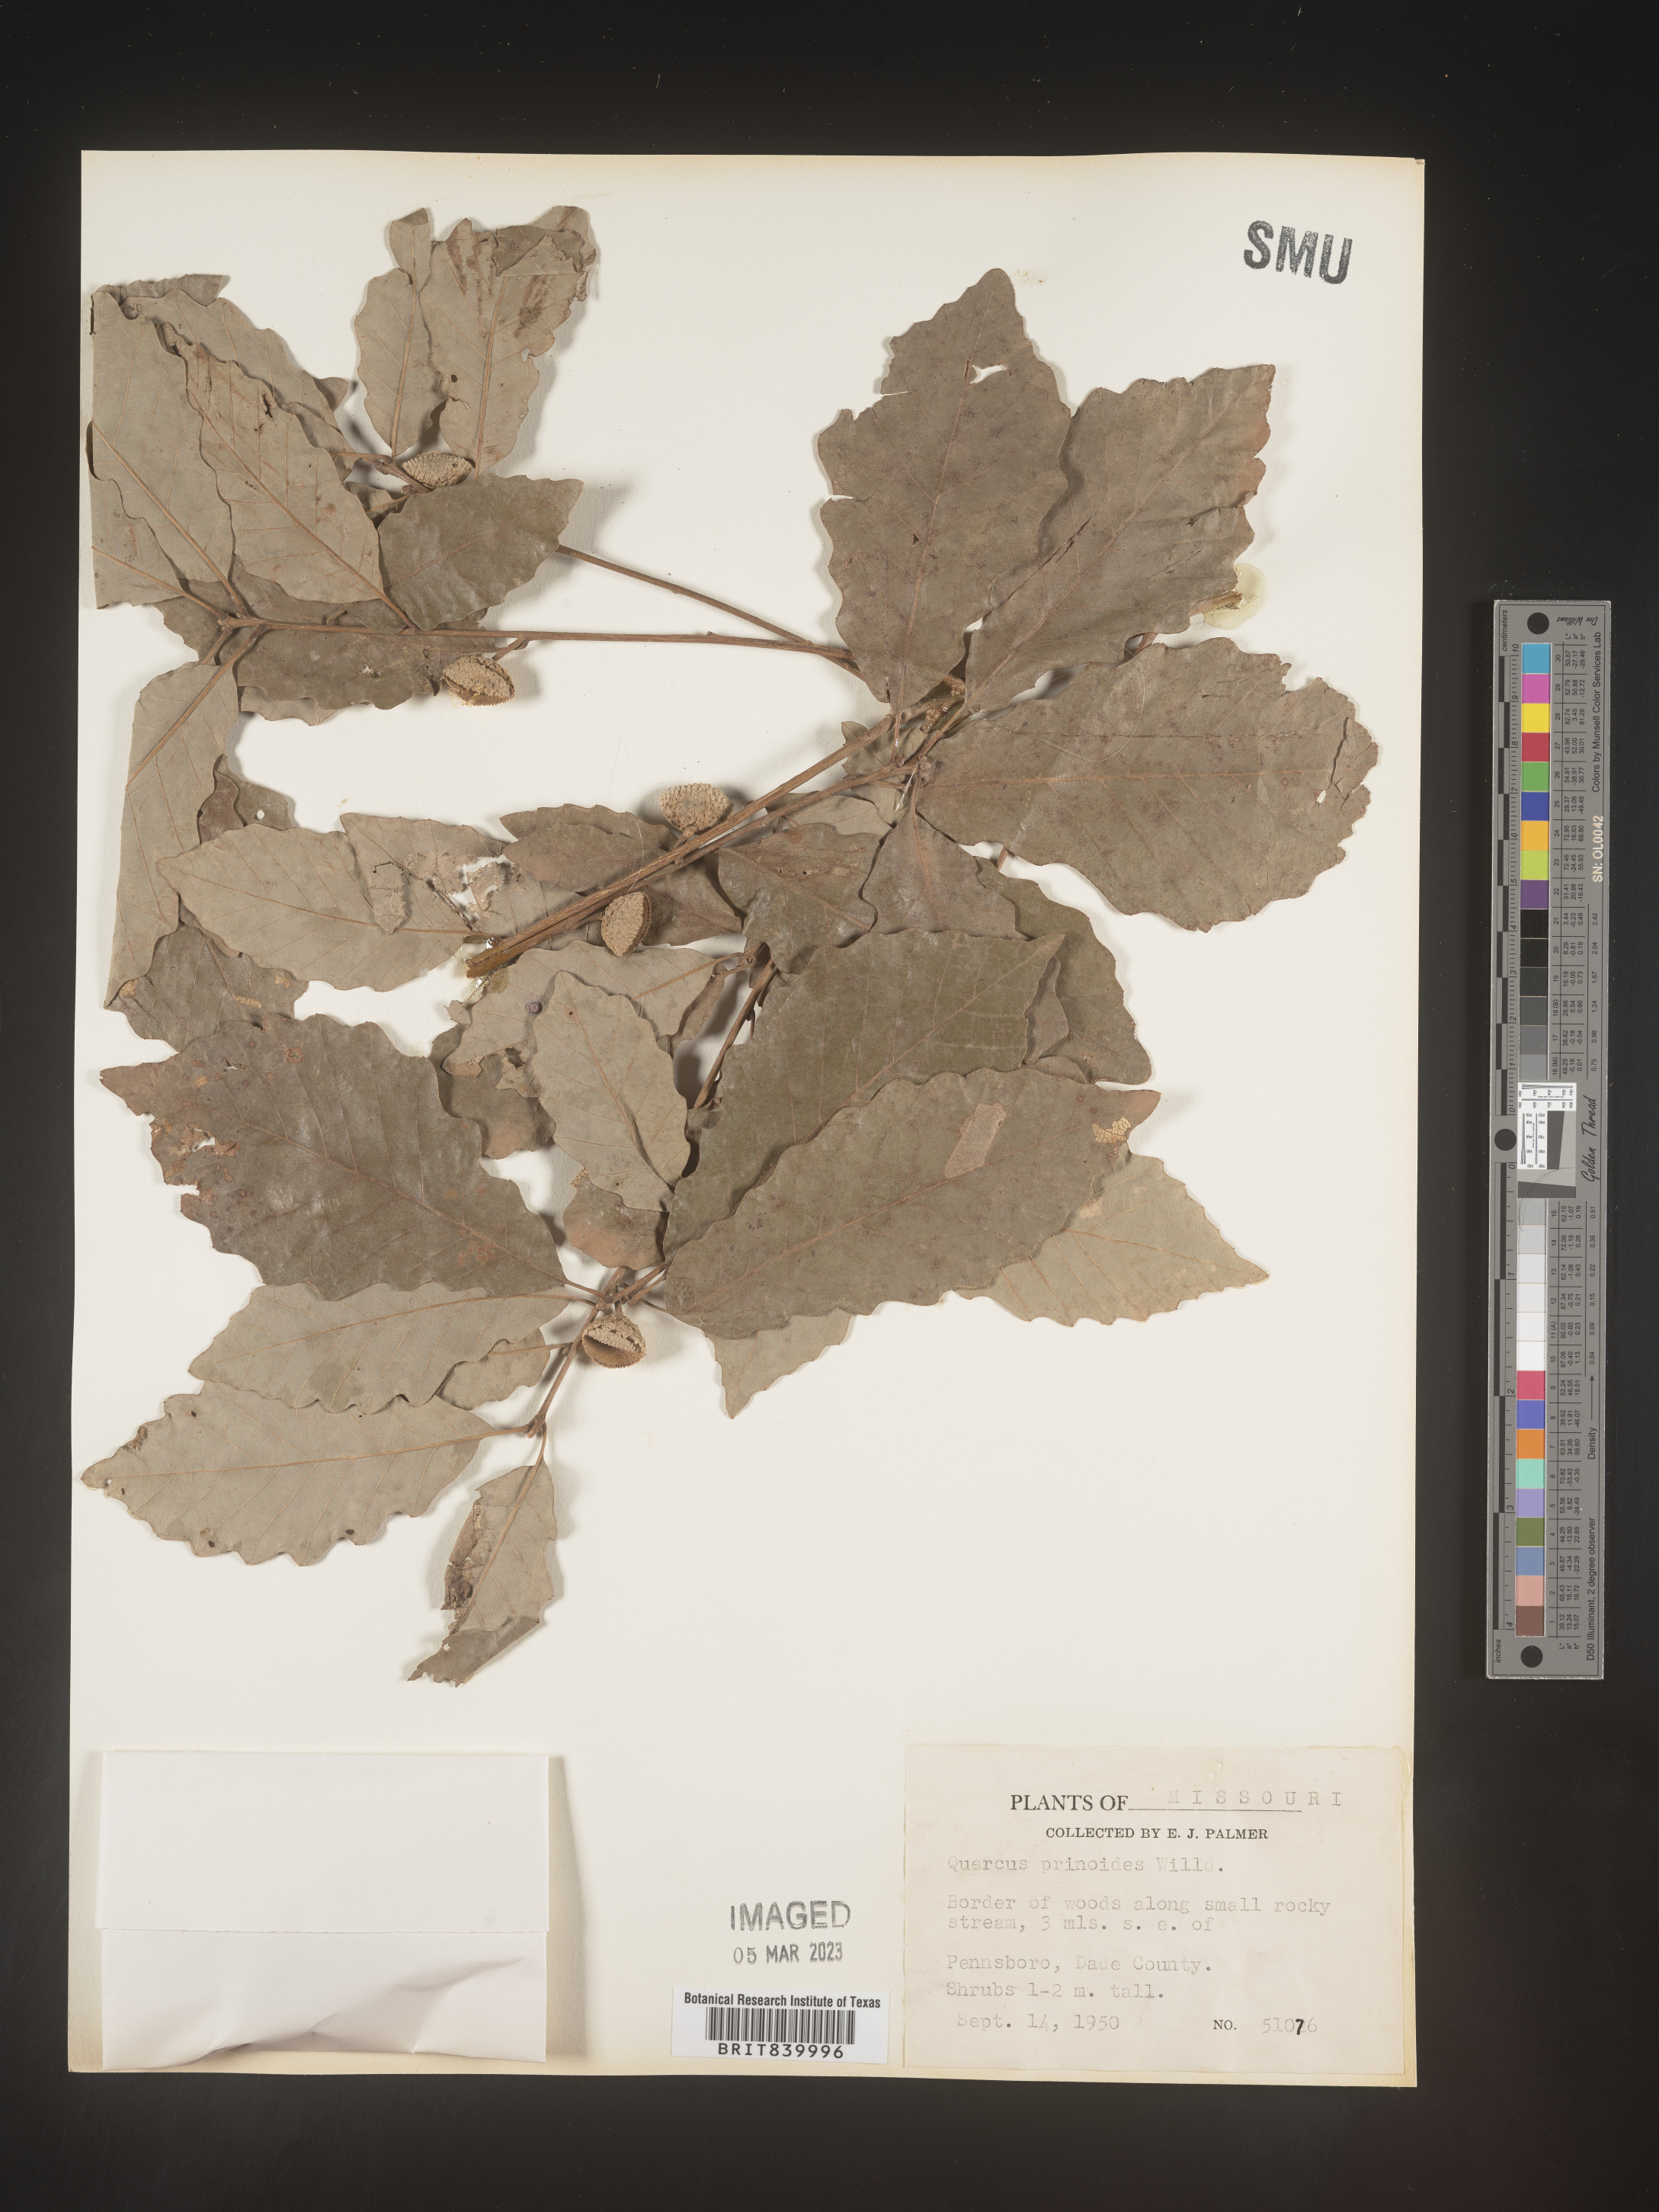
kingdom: Plantae
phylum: Tracheophyta
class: Magnoliopsida
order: Fagales
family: Fagaceae
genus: Quercus
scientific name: Quercus prinoides
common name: Dwarf chinkapin oak
